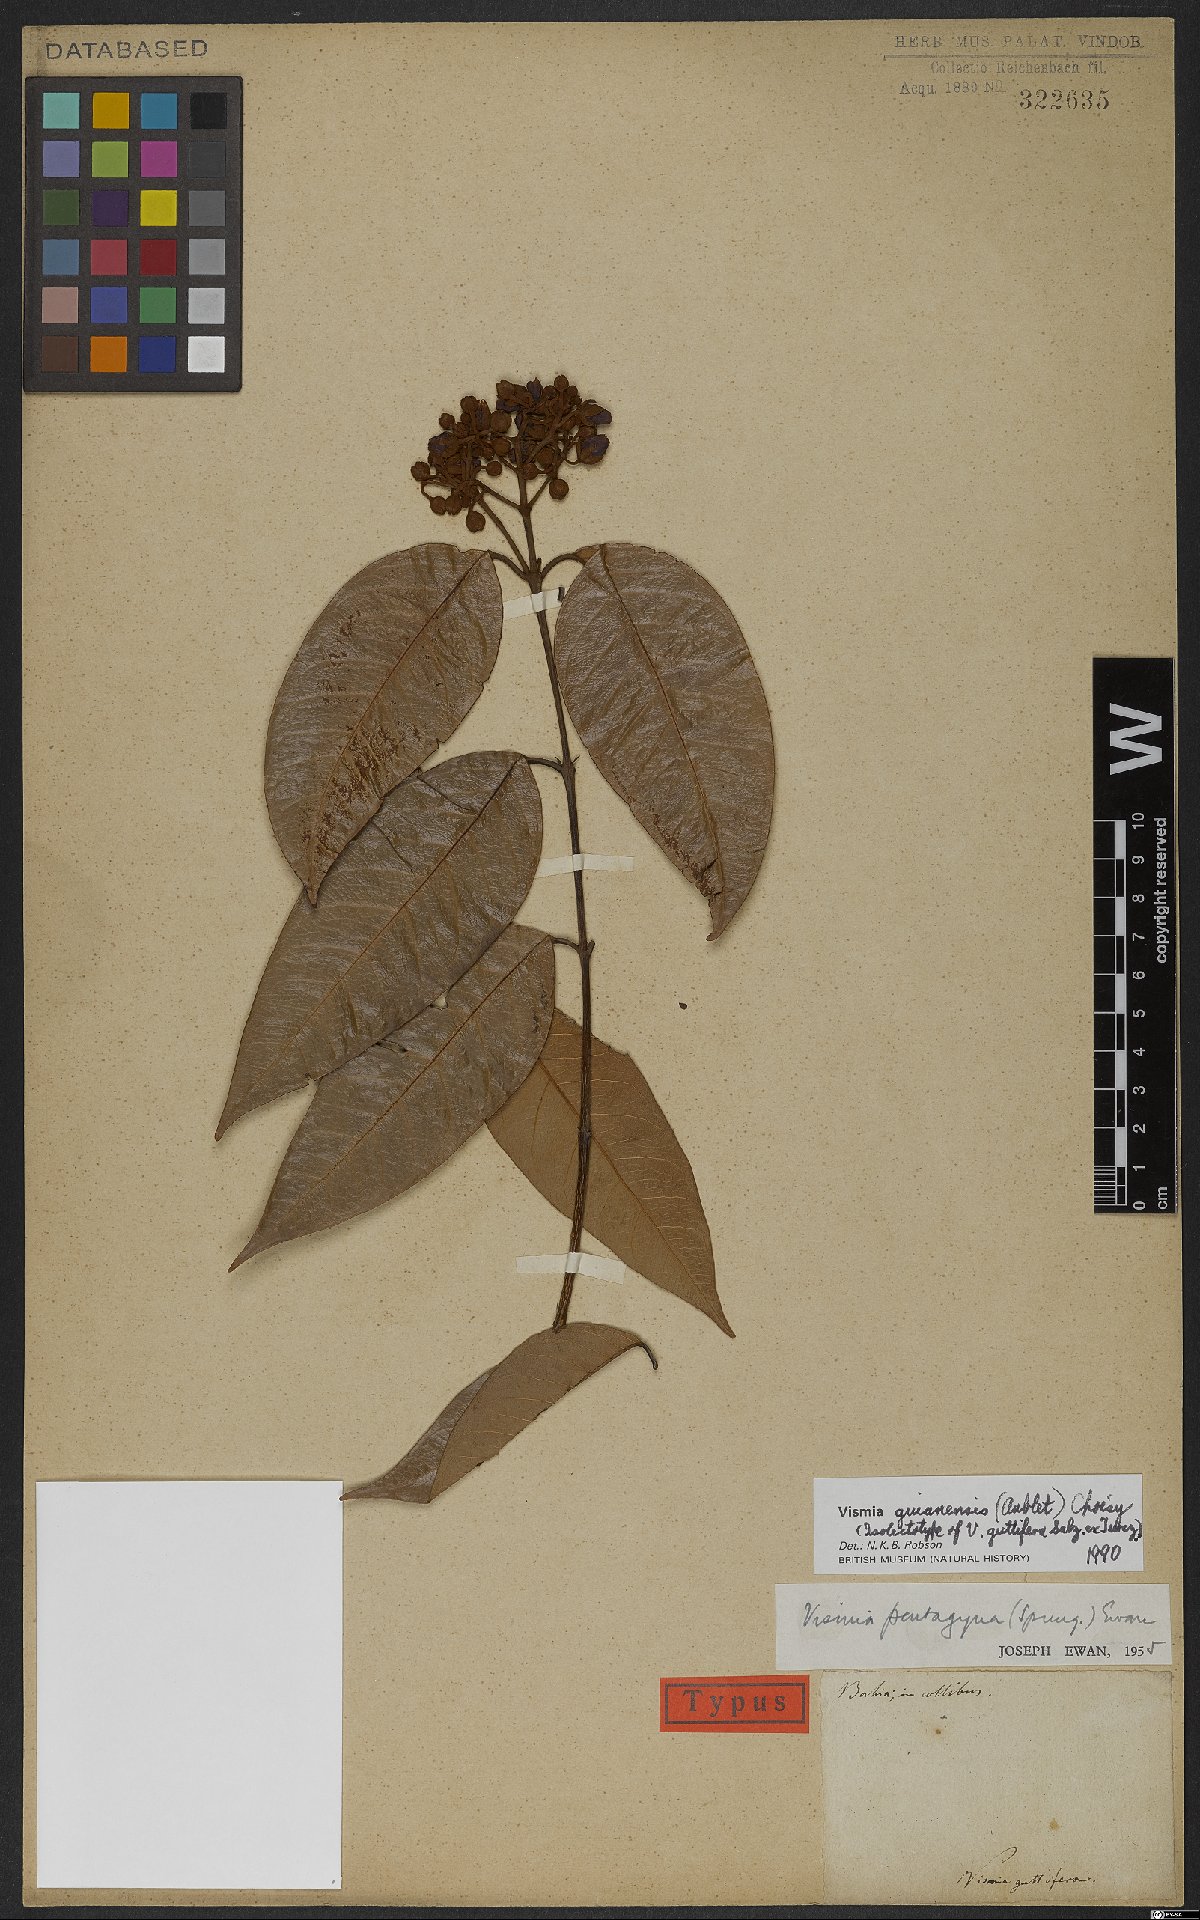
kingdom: Plantae
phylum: Tracheophyta
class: Magnoliopsida
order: Malpighiales
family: Hypericaceae
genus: Vismia
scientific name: Vismia guianensis
